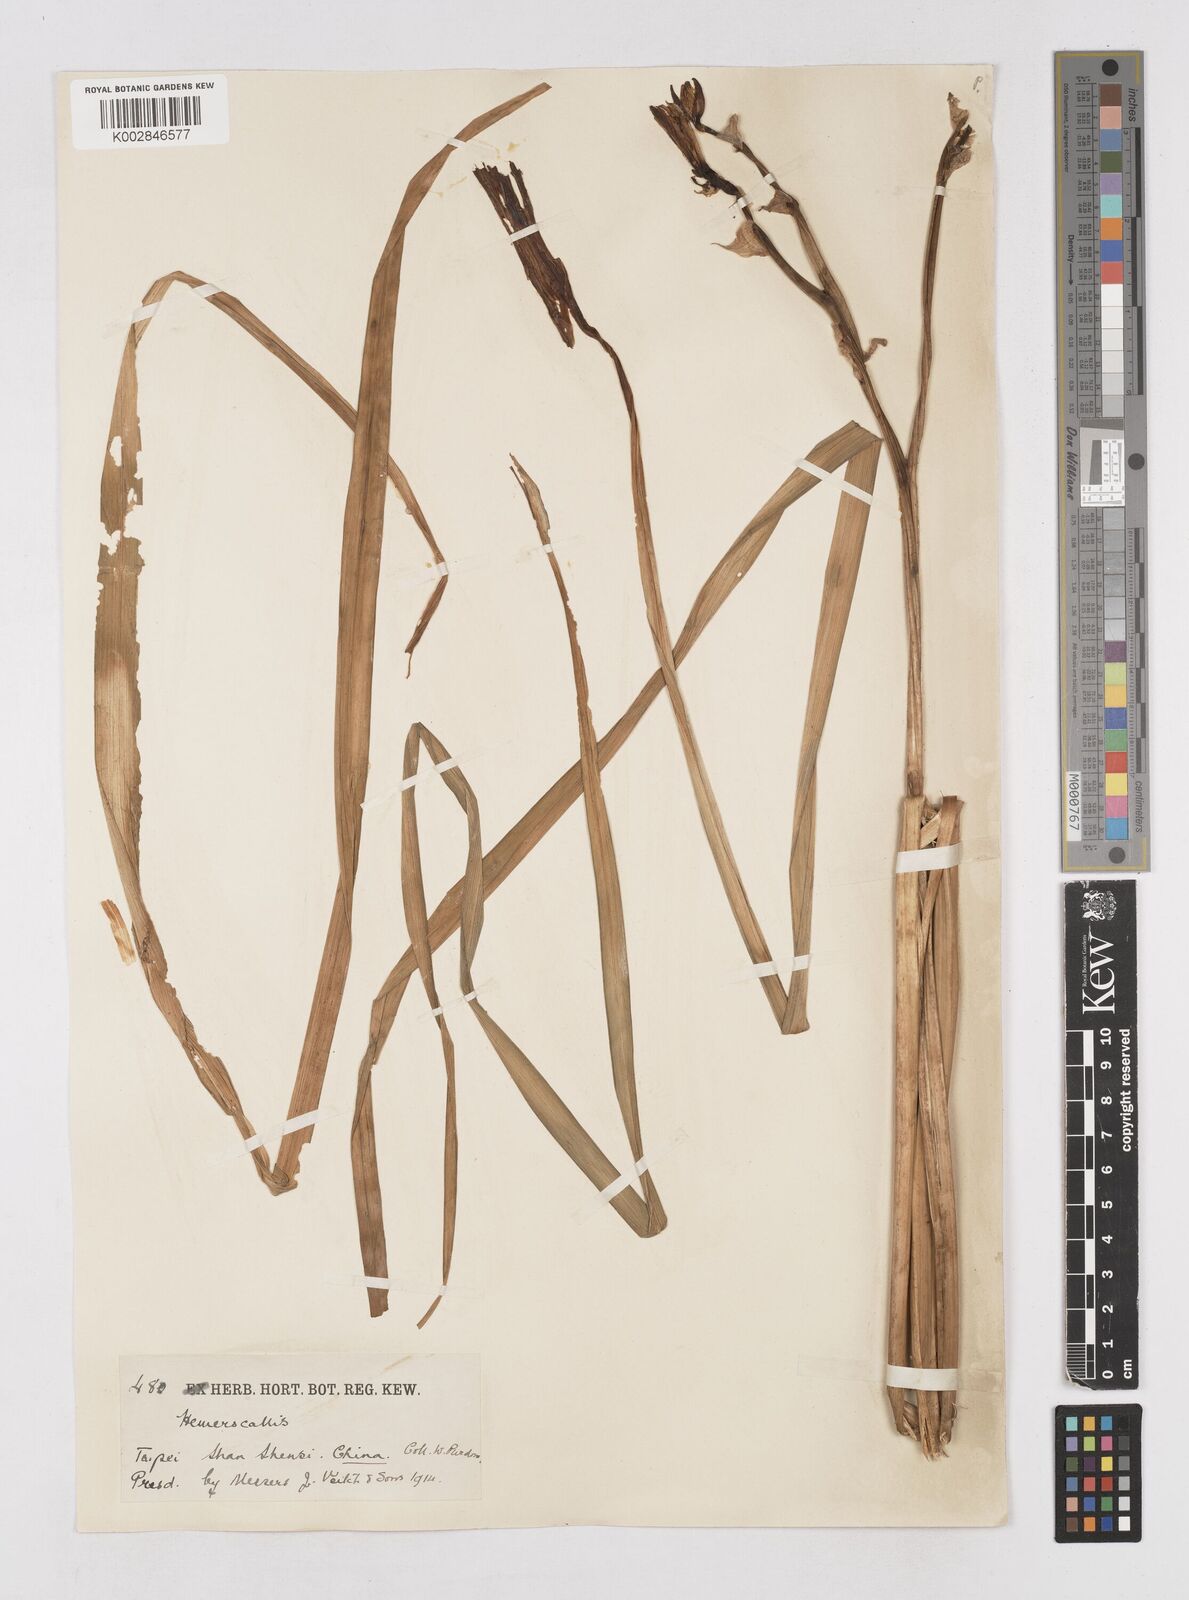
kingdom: Plantae
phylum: Tracheophyta
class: Liliopsida
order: Asparagales
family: Asphodelaceae
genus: Hemerocallis
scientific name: Hemerocallis
